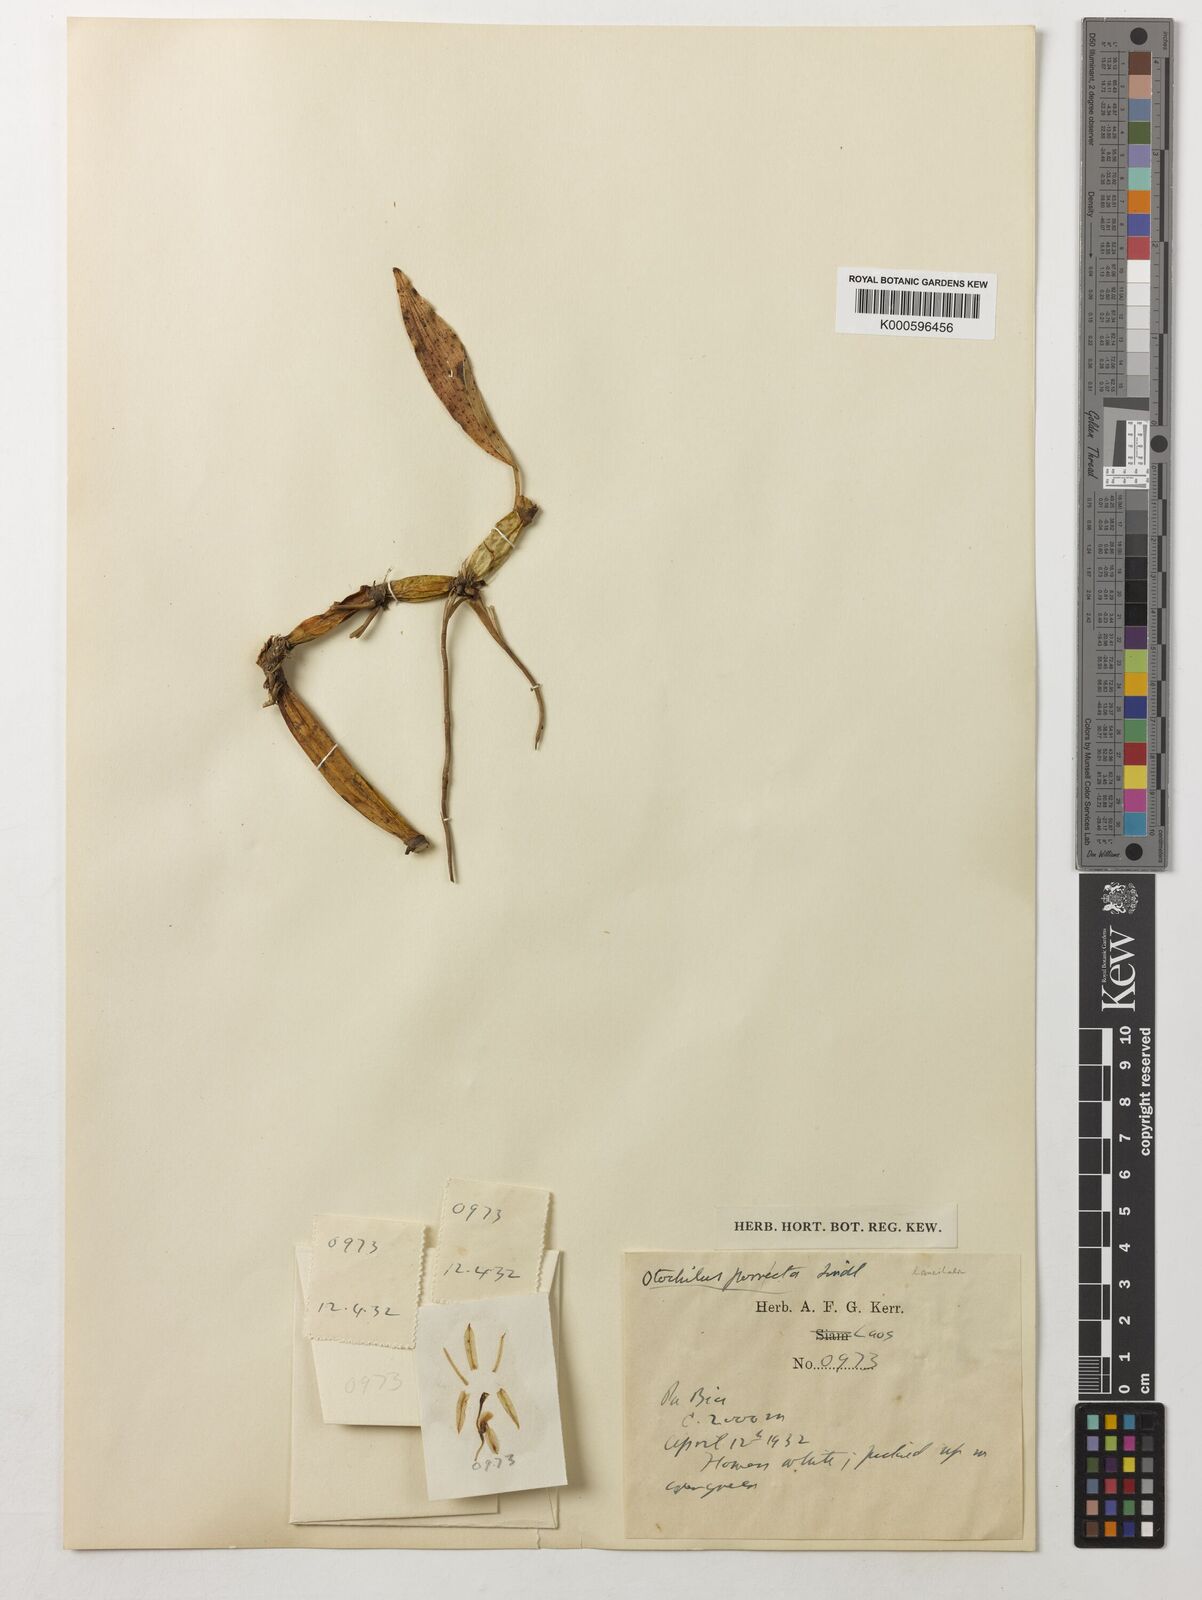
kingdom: Plantae
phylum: Tracheophyta
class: Liliopsida
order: Asparagales
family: Orchidaceae
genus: Coelogyne
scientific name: Coelogyne porrecta
